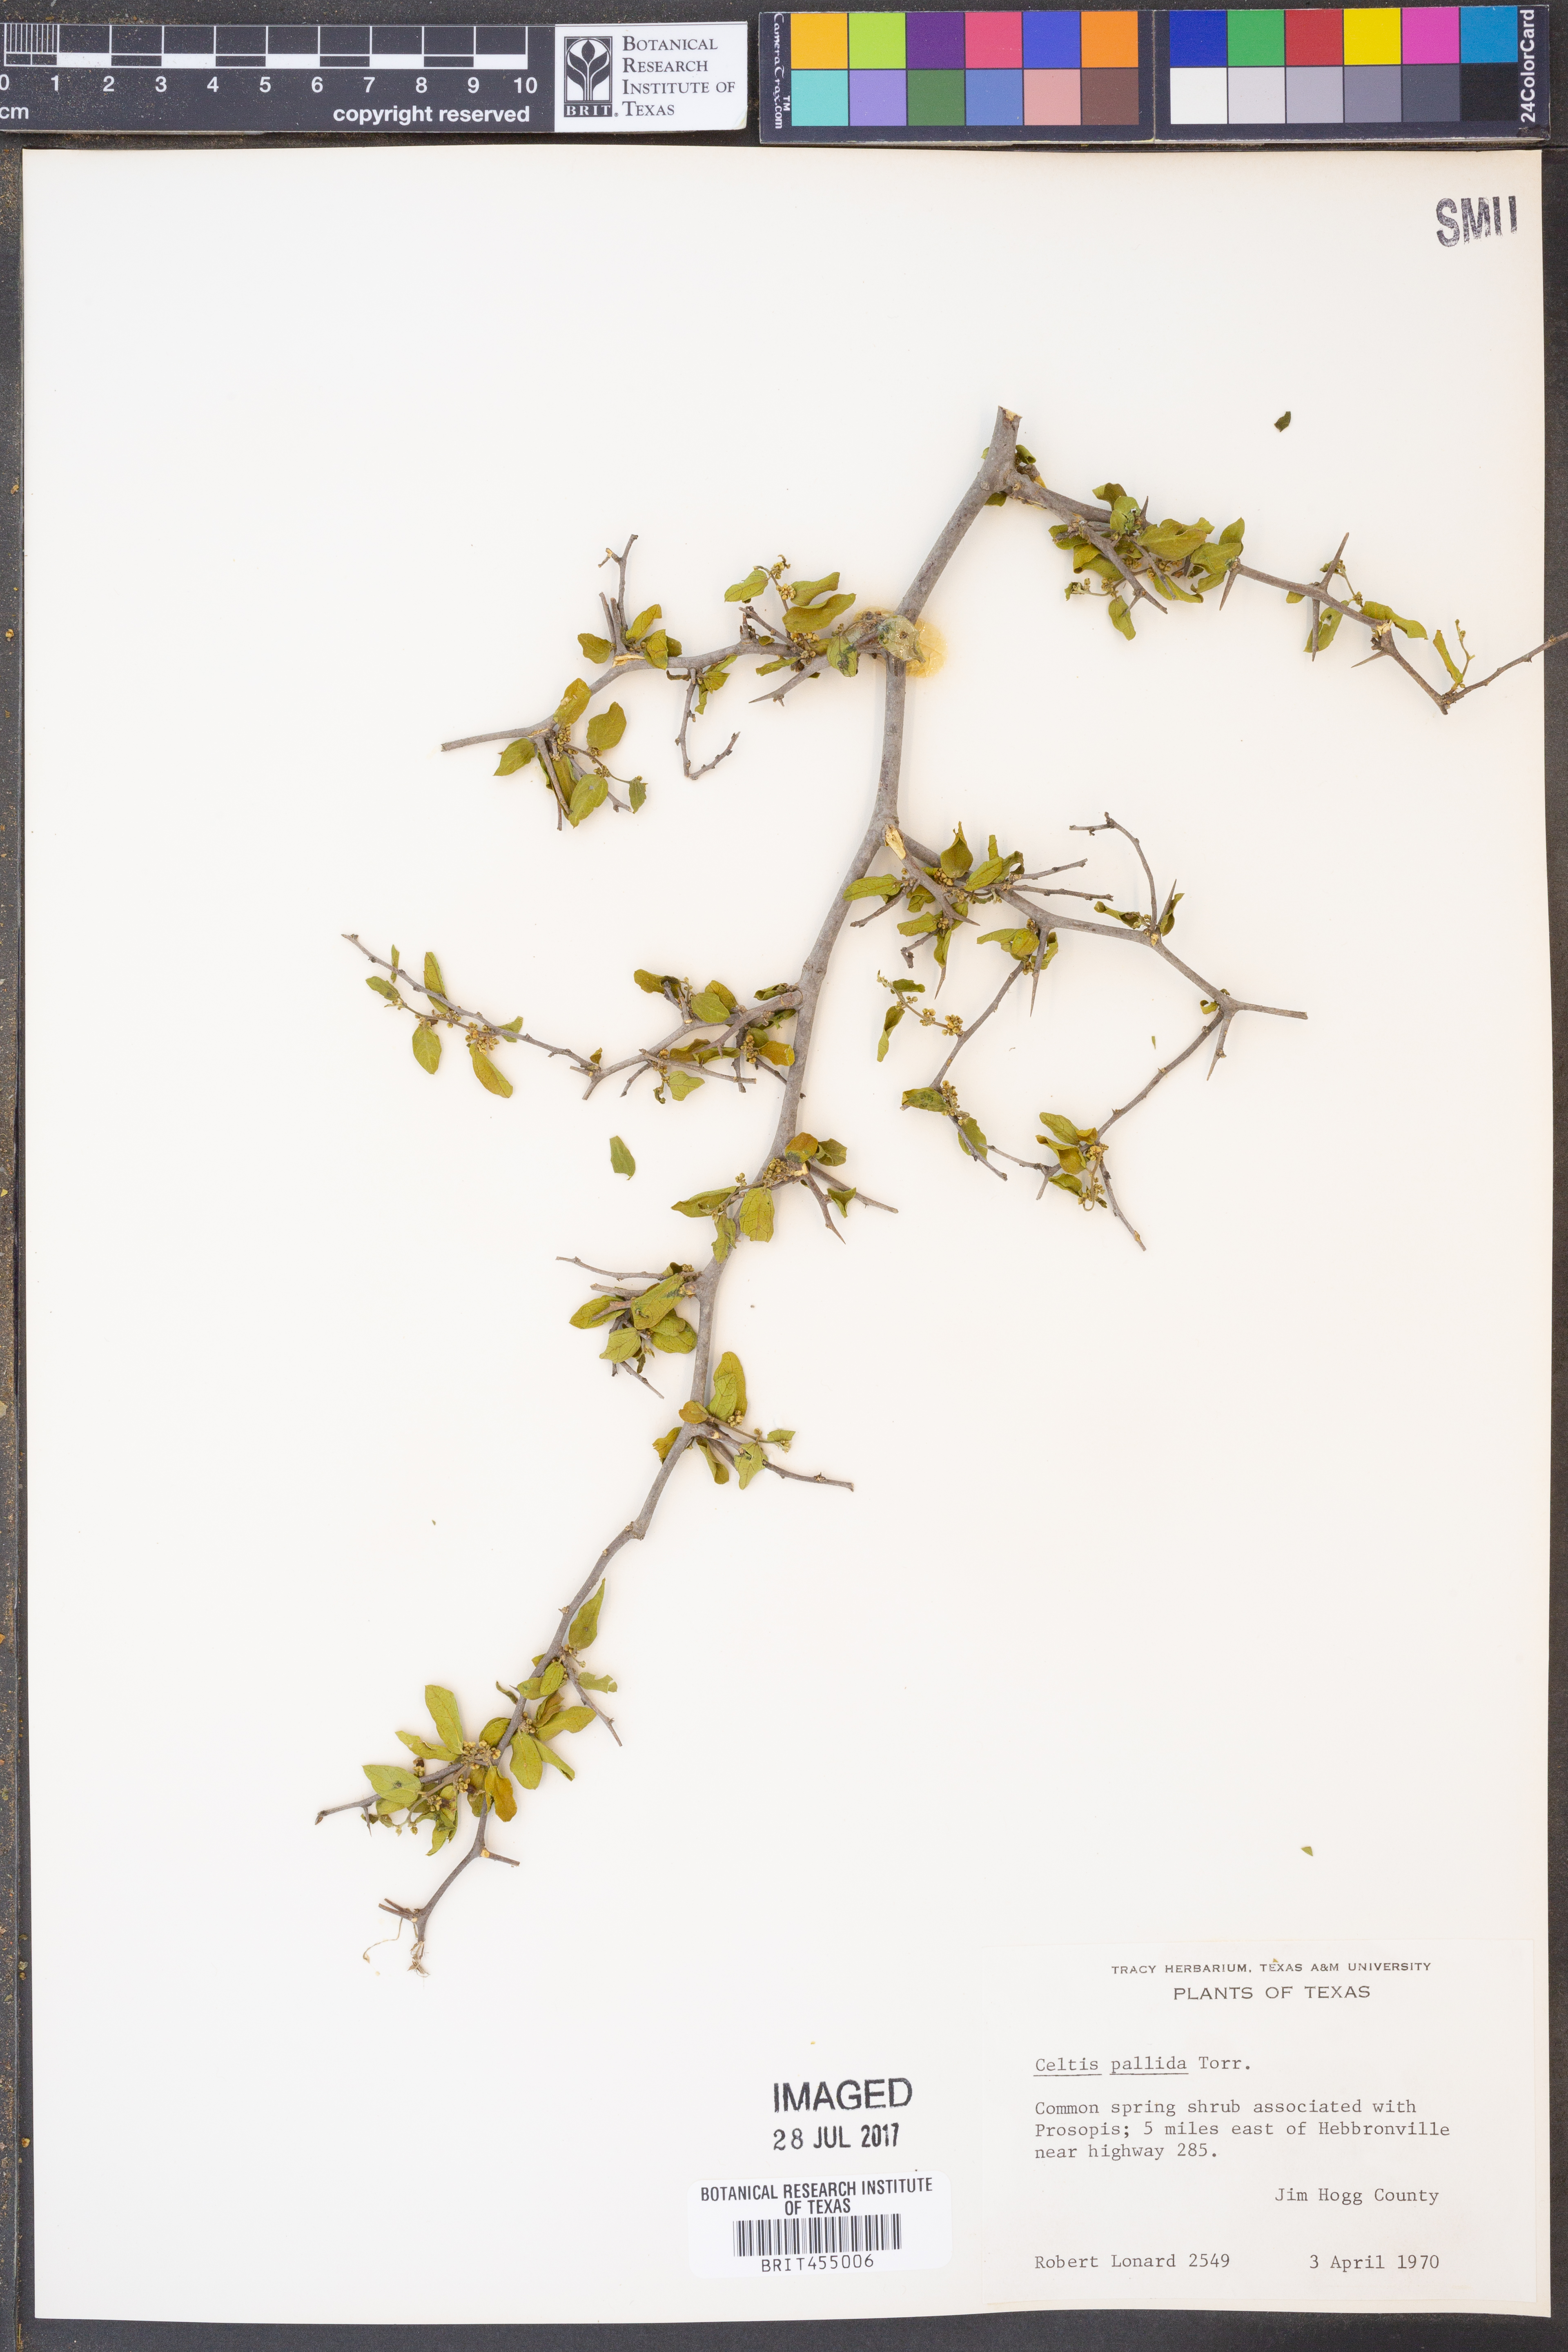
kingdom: Plantae
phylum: Tracheophyta
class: Magnoliopsida
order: Rosales
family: Cannabaceae
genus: Celtis
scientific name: Celtis pallida
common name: Desert hackberry
